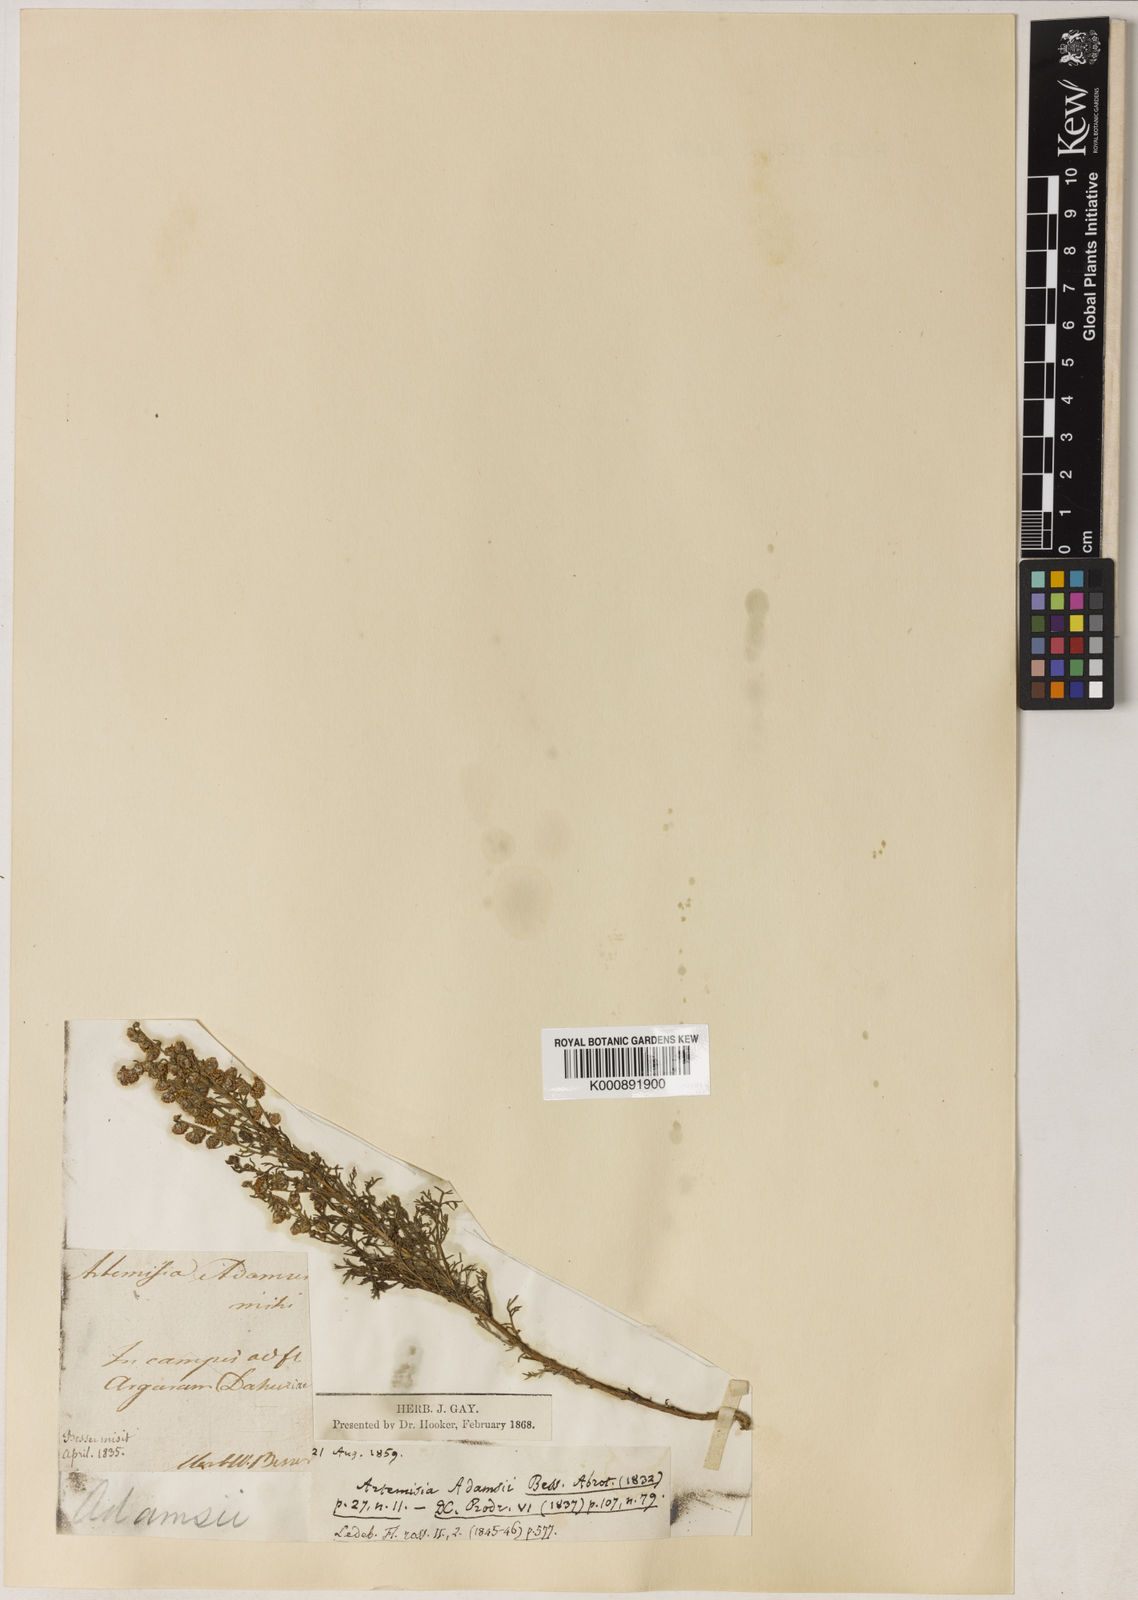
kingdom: Plantae
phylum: Tracheophyta
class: Magnoliopsida
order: Asterales
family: Asteraceae
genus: Artemisia
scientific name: Artemisia adamsii
